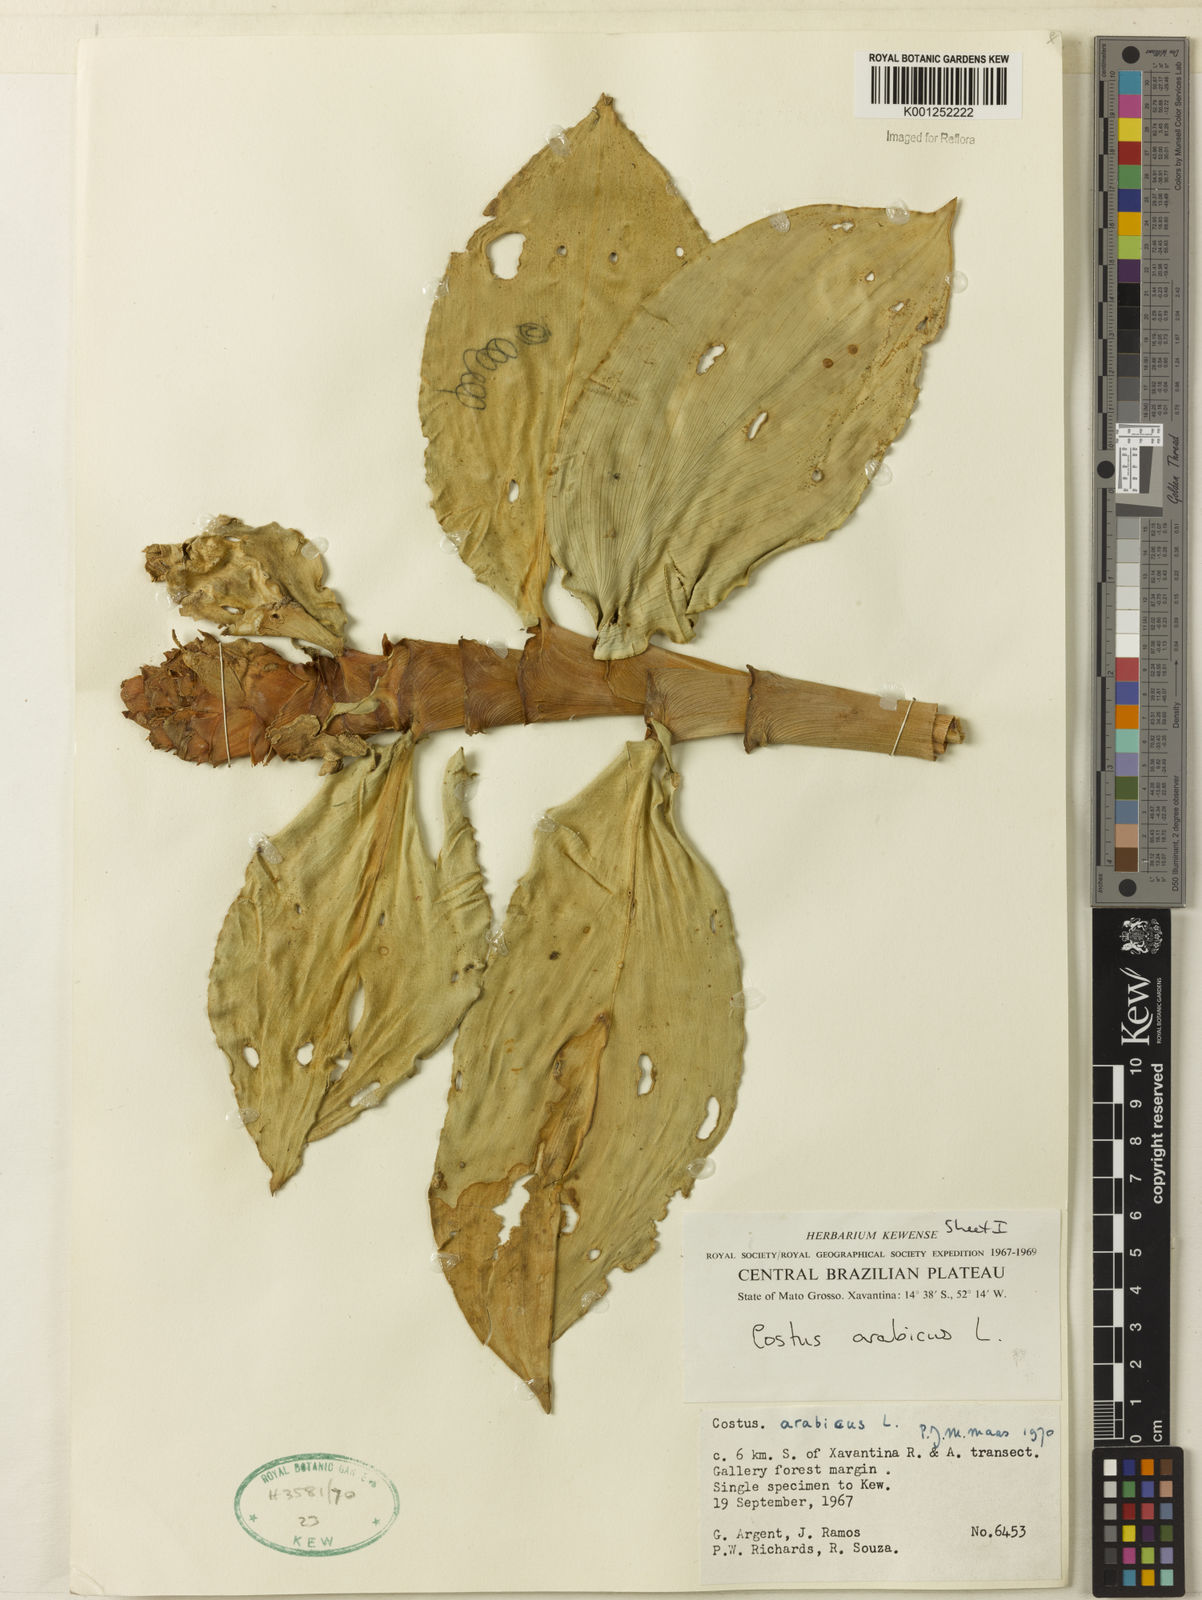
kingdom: Plantae
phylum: Tracheophyta
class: Liliopsida
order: Zingiberales
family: Costaceae
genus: Costus
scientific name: Costus arabicus
